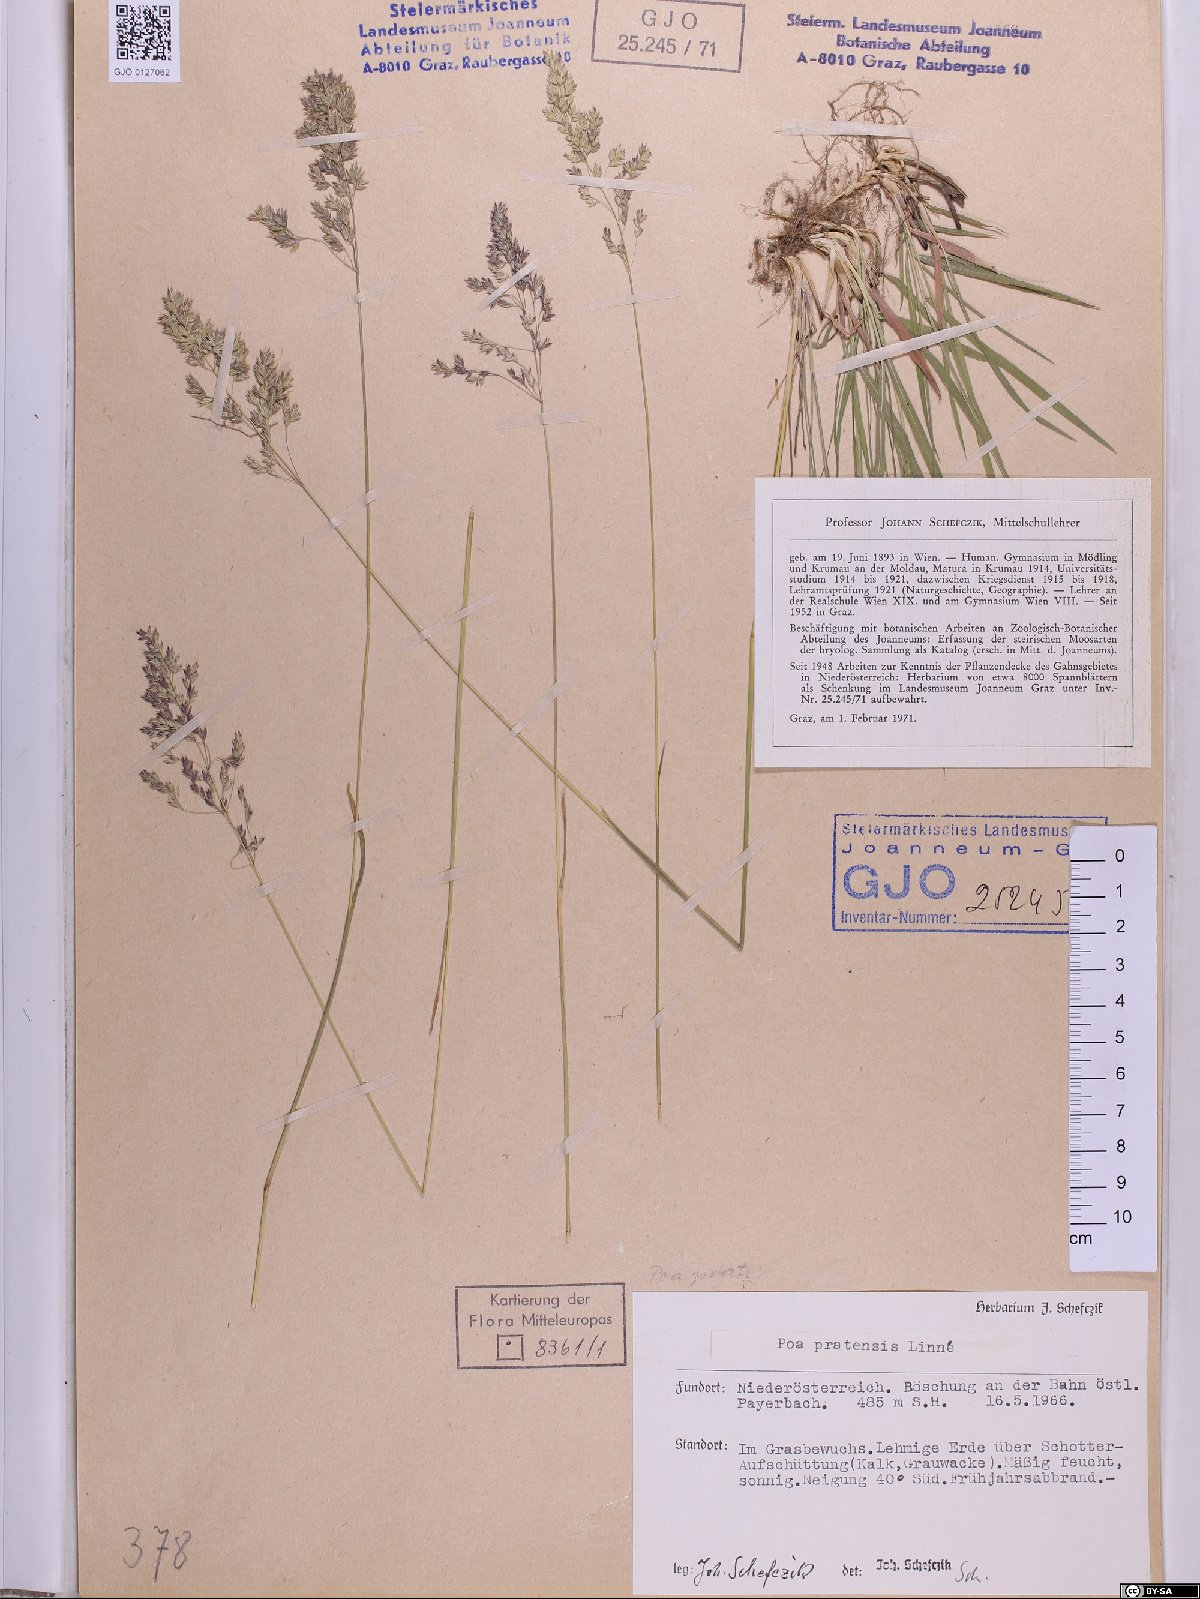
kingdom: Plantae
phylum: Tracheophyta
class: Liliopsida
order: Poales
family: Poaceae
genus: Poa
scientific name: Poa pratensis
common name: Kentucky bluegrass
